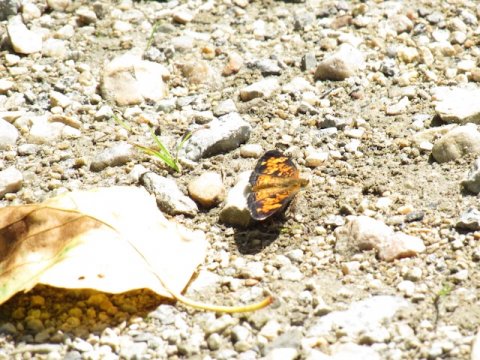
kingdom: Animalia
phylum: Arthropoda
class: Insecta
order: Lepidoptera
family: Nymphalidae
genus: Phyciodes
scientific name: Phyciodes tharos
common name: Pearl Crescent
